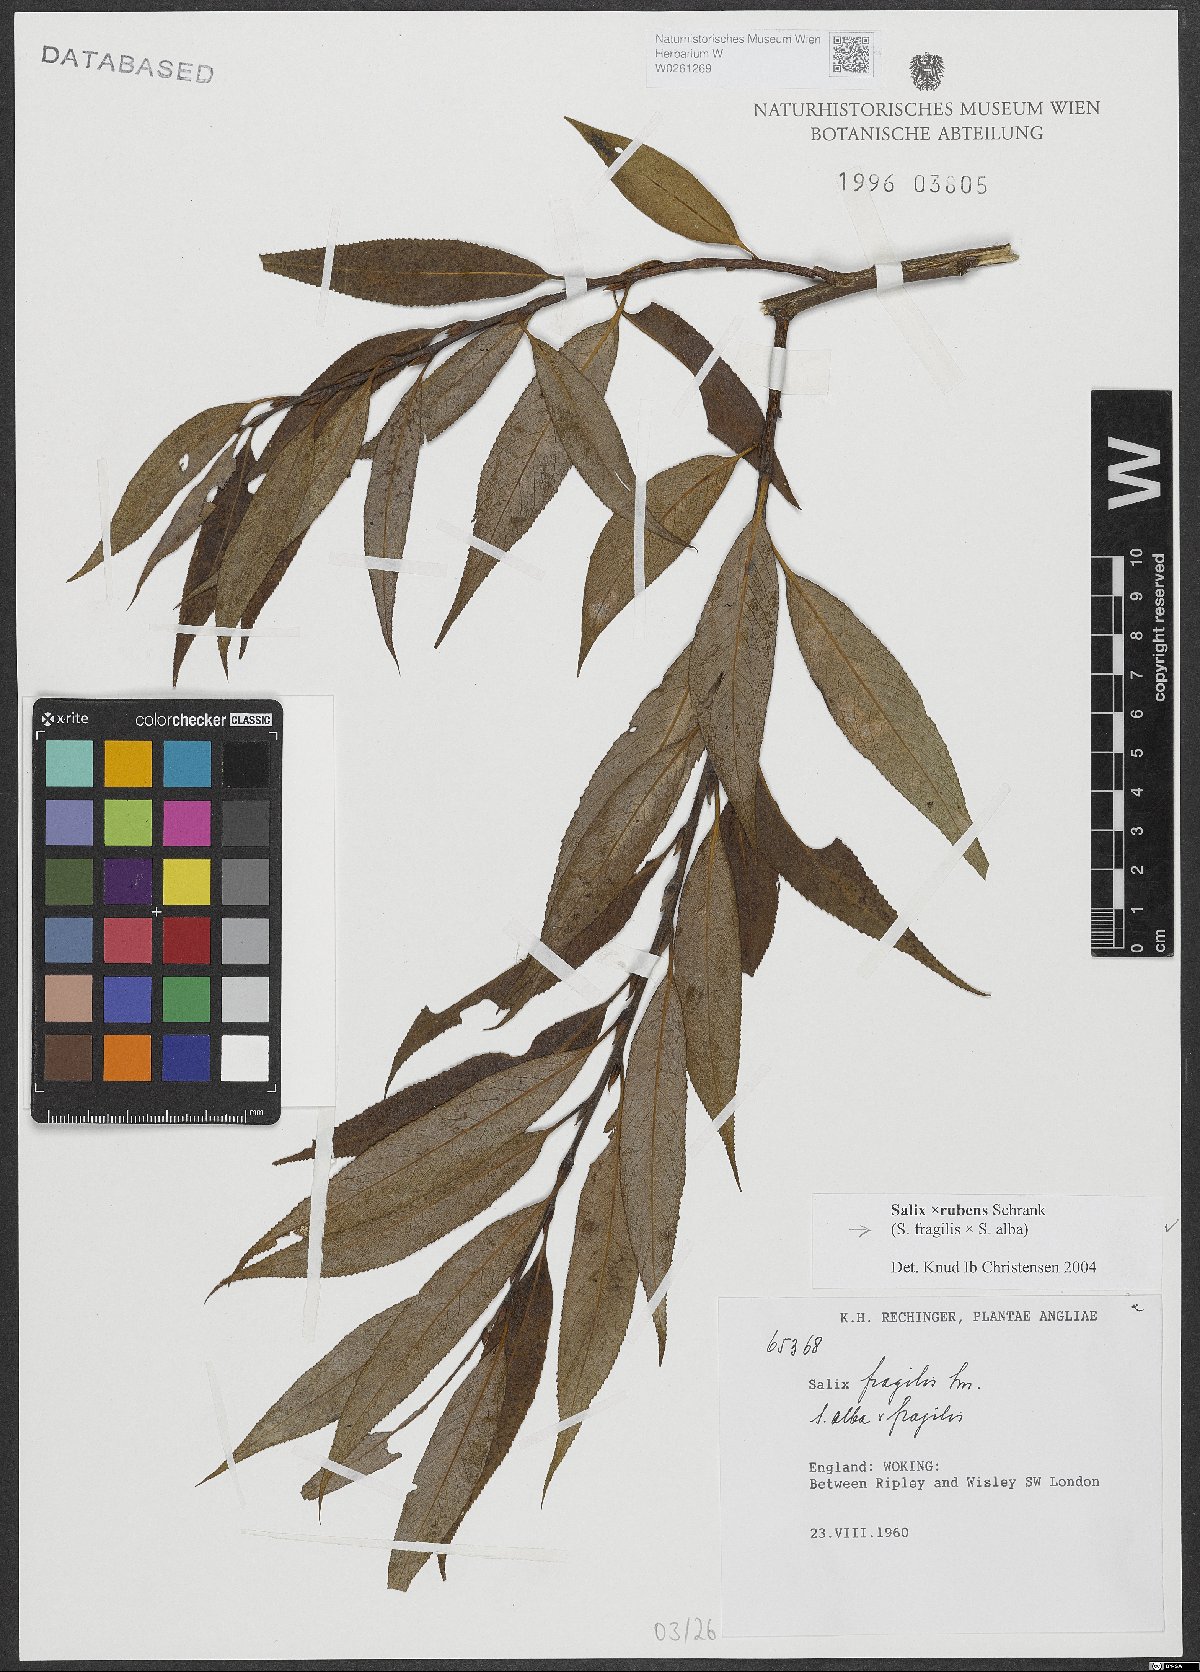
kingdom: Plantae
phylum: Tracheophyta
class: Magnoliopsida
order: Malpighiales
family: Salicaceae
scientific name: Salicaceae
